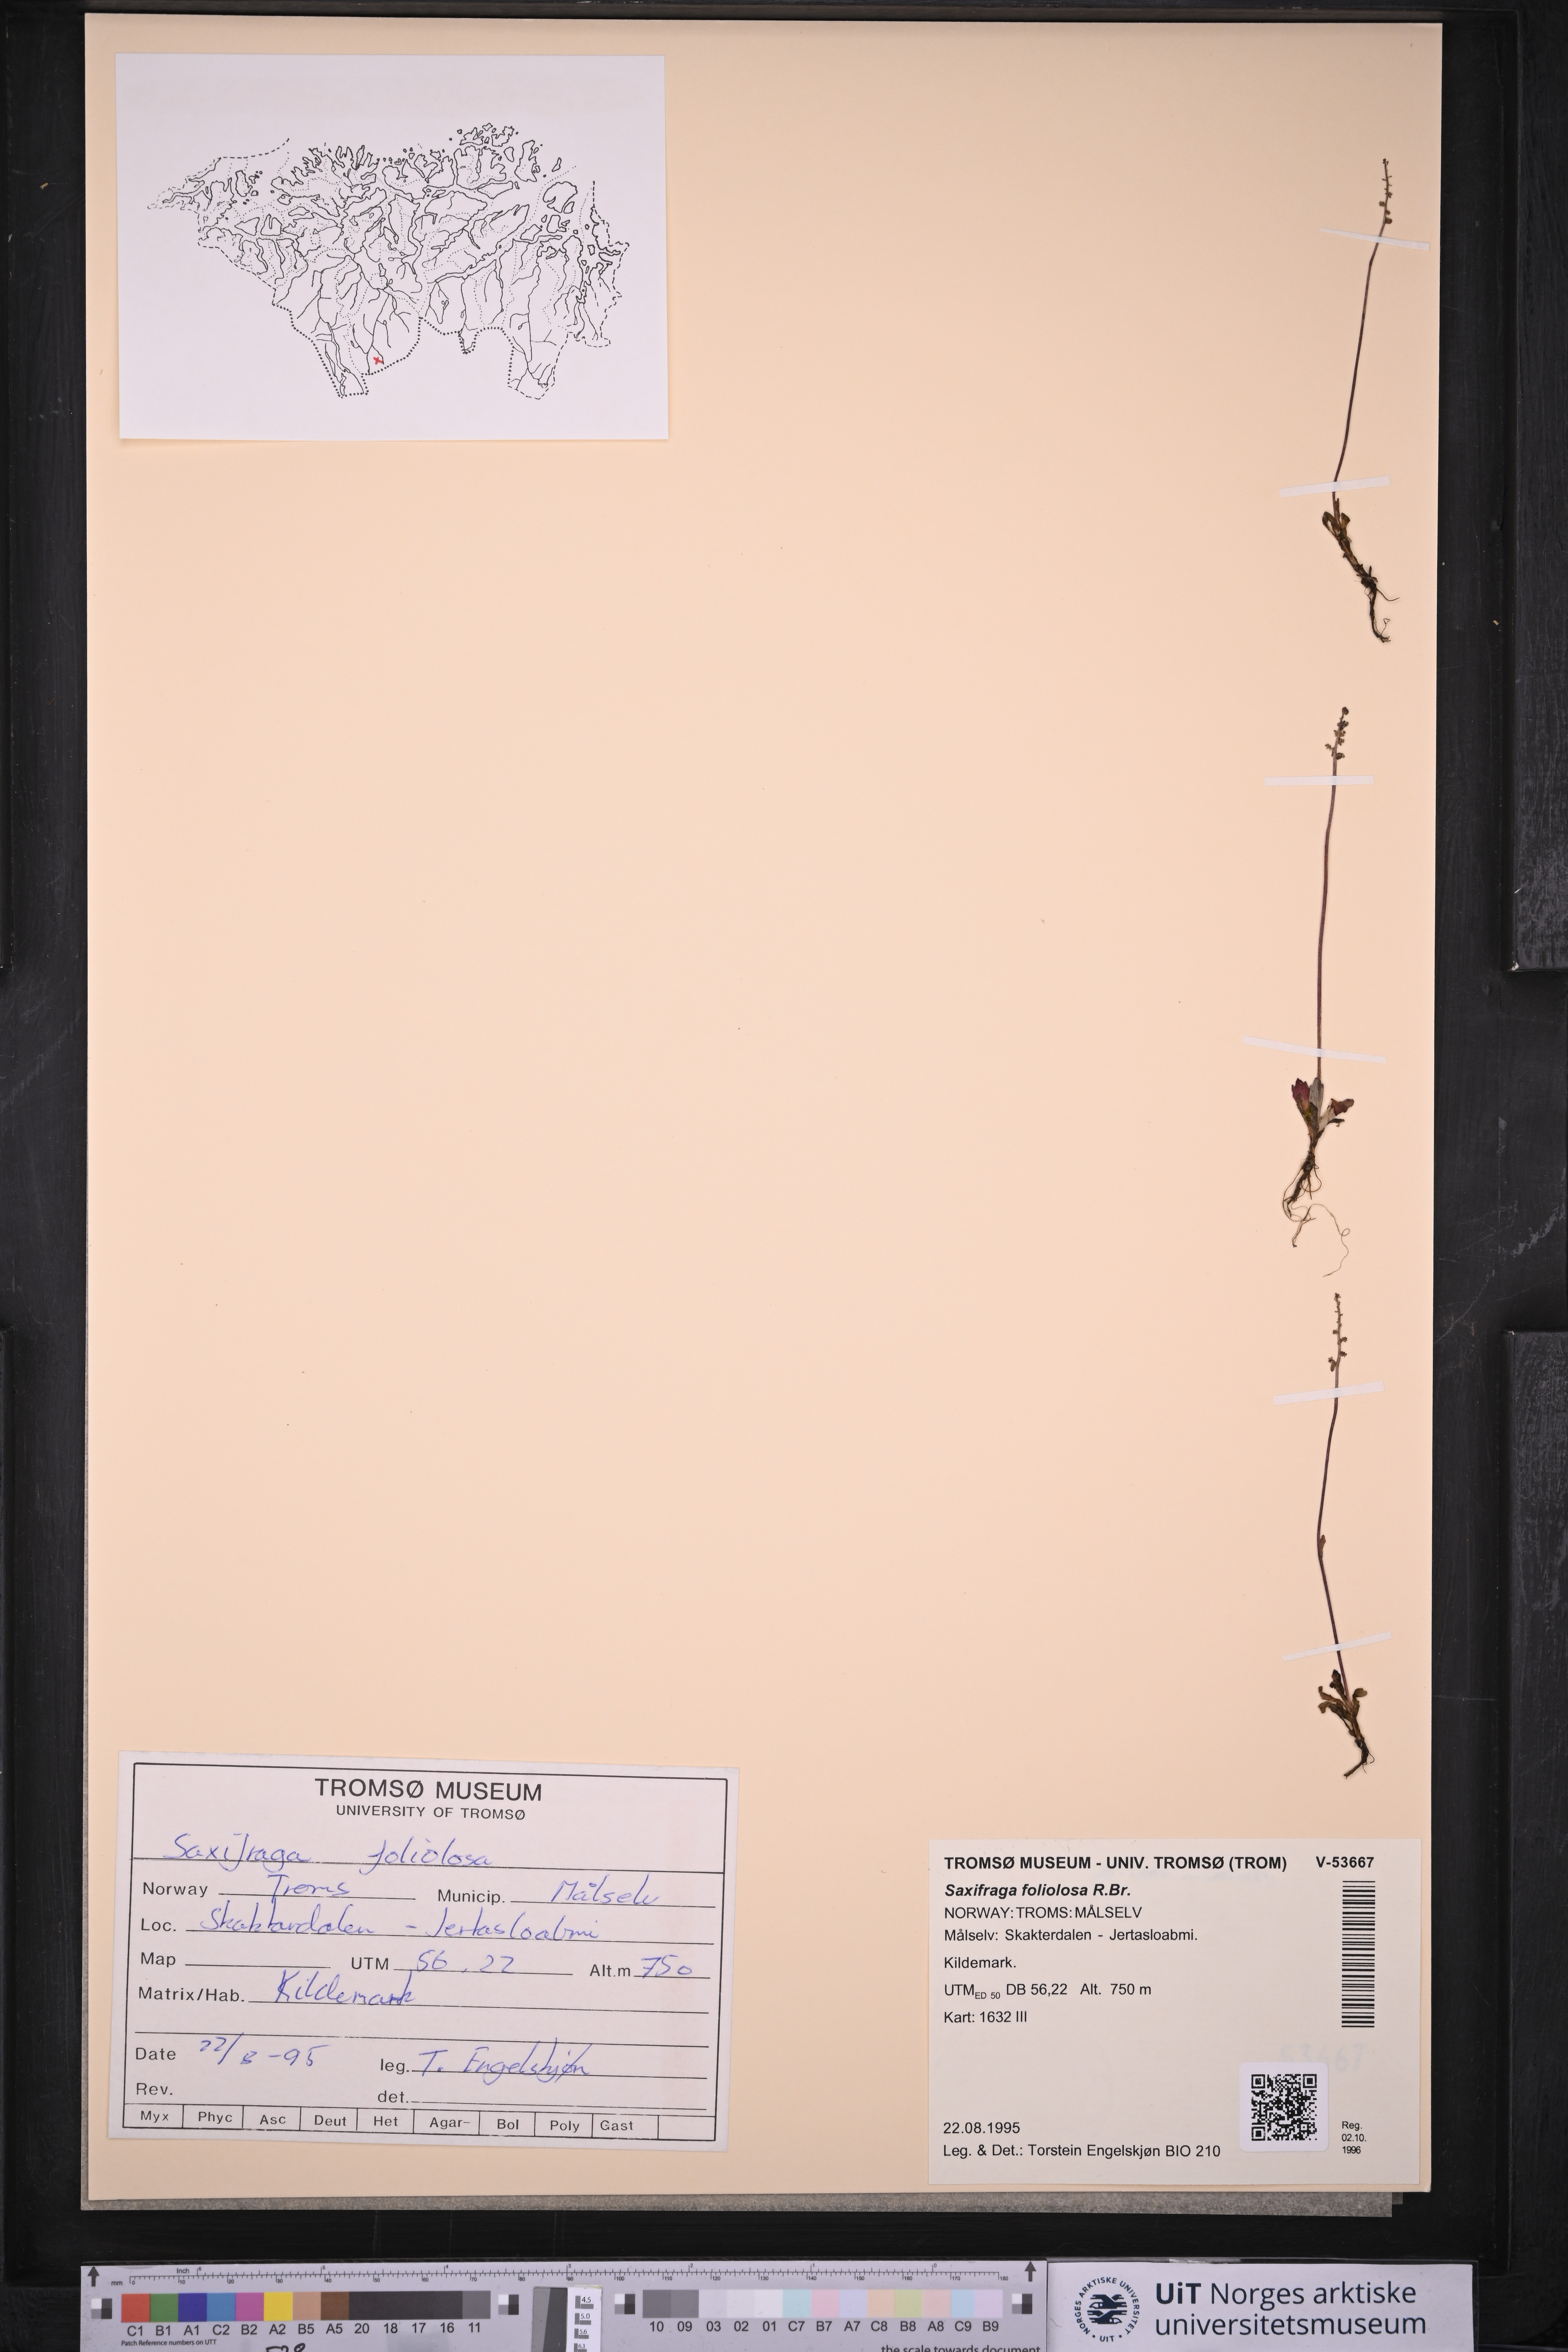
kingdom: Plantae
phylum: Tracheophyta
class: Magnoliopsida
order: Saxifragales
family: Saxifragaceae
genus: Micranthes
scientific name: Micranthes foliolosa
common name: Leafystem saxifrage
